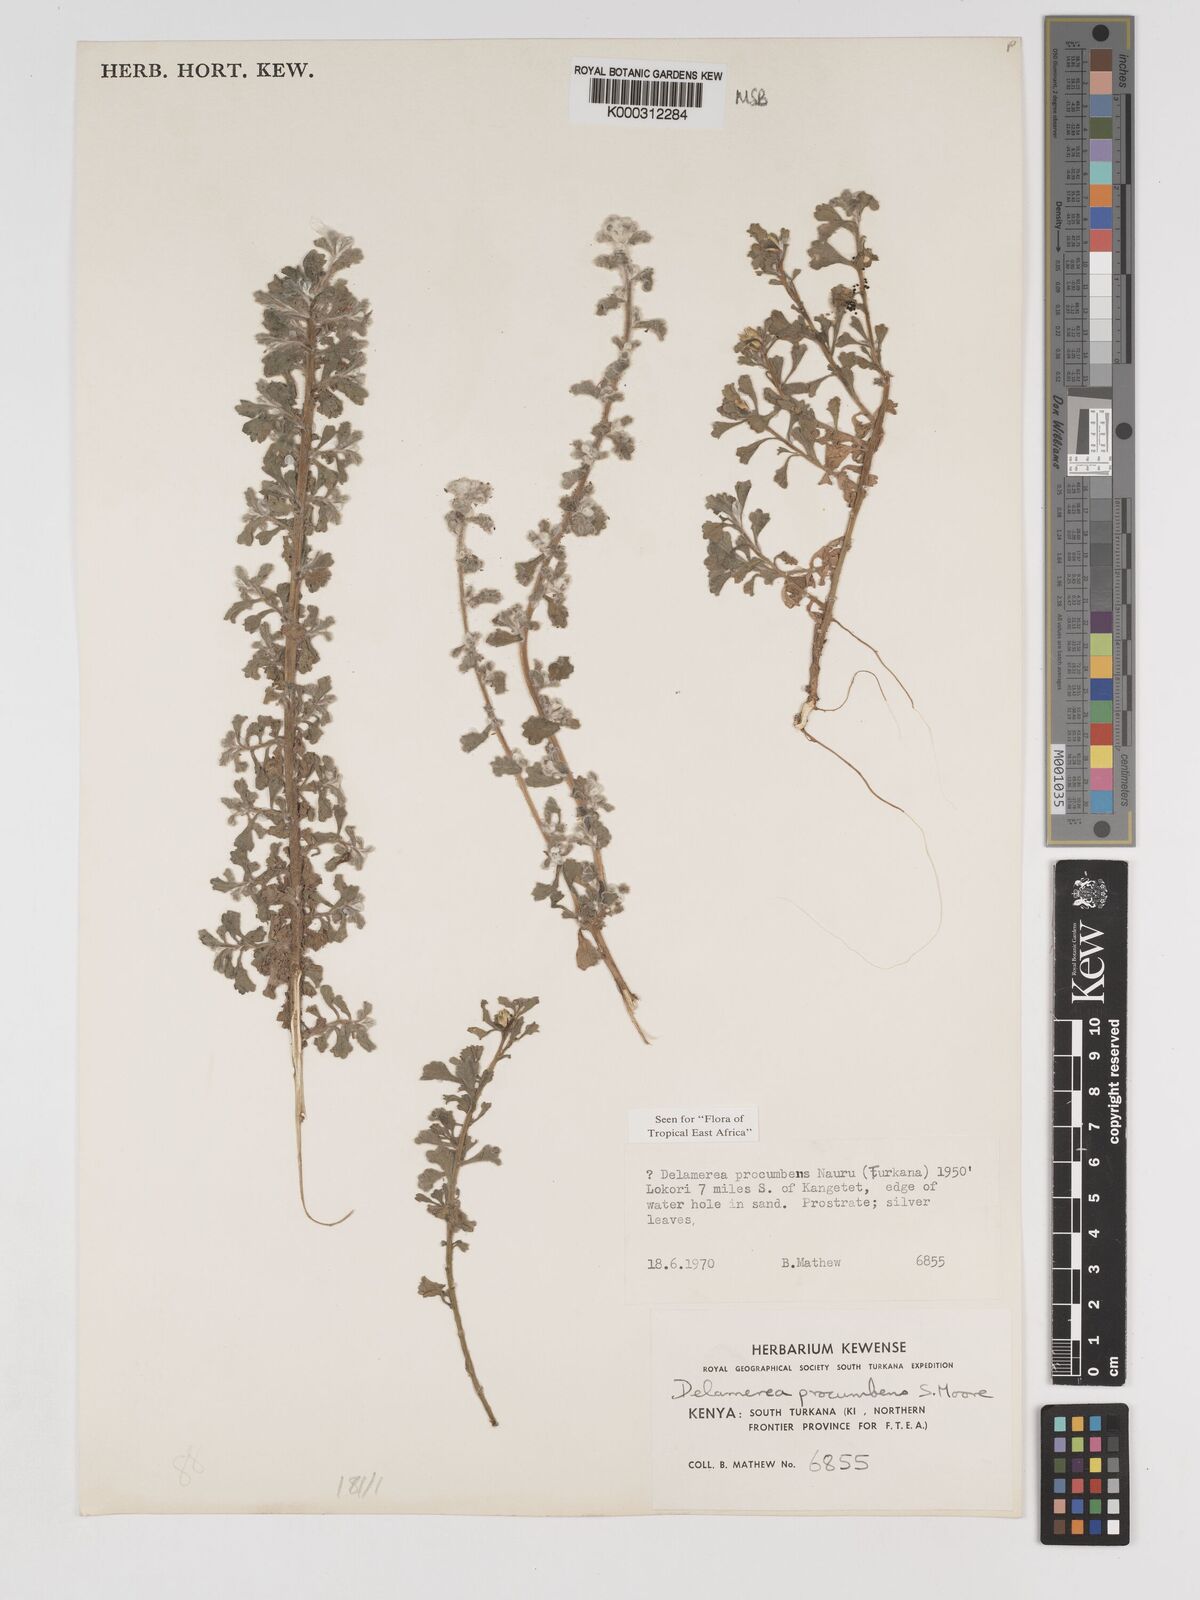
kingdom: Plantae
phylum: Tracheophyta
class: Magnoliopsida
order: Asterales
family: Asteraceae
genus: Delamerea
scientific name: Delamerea procumbens
